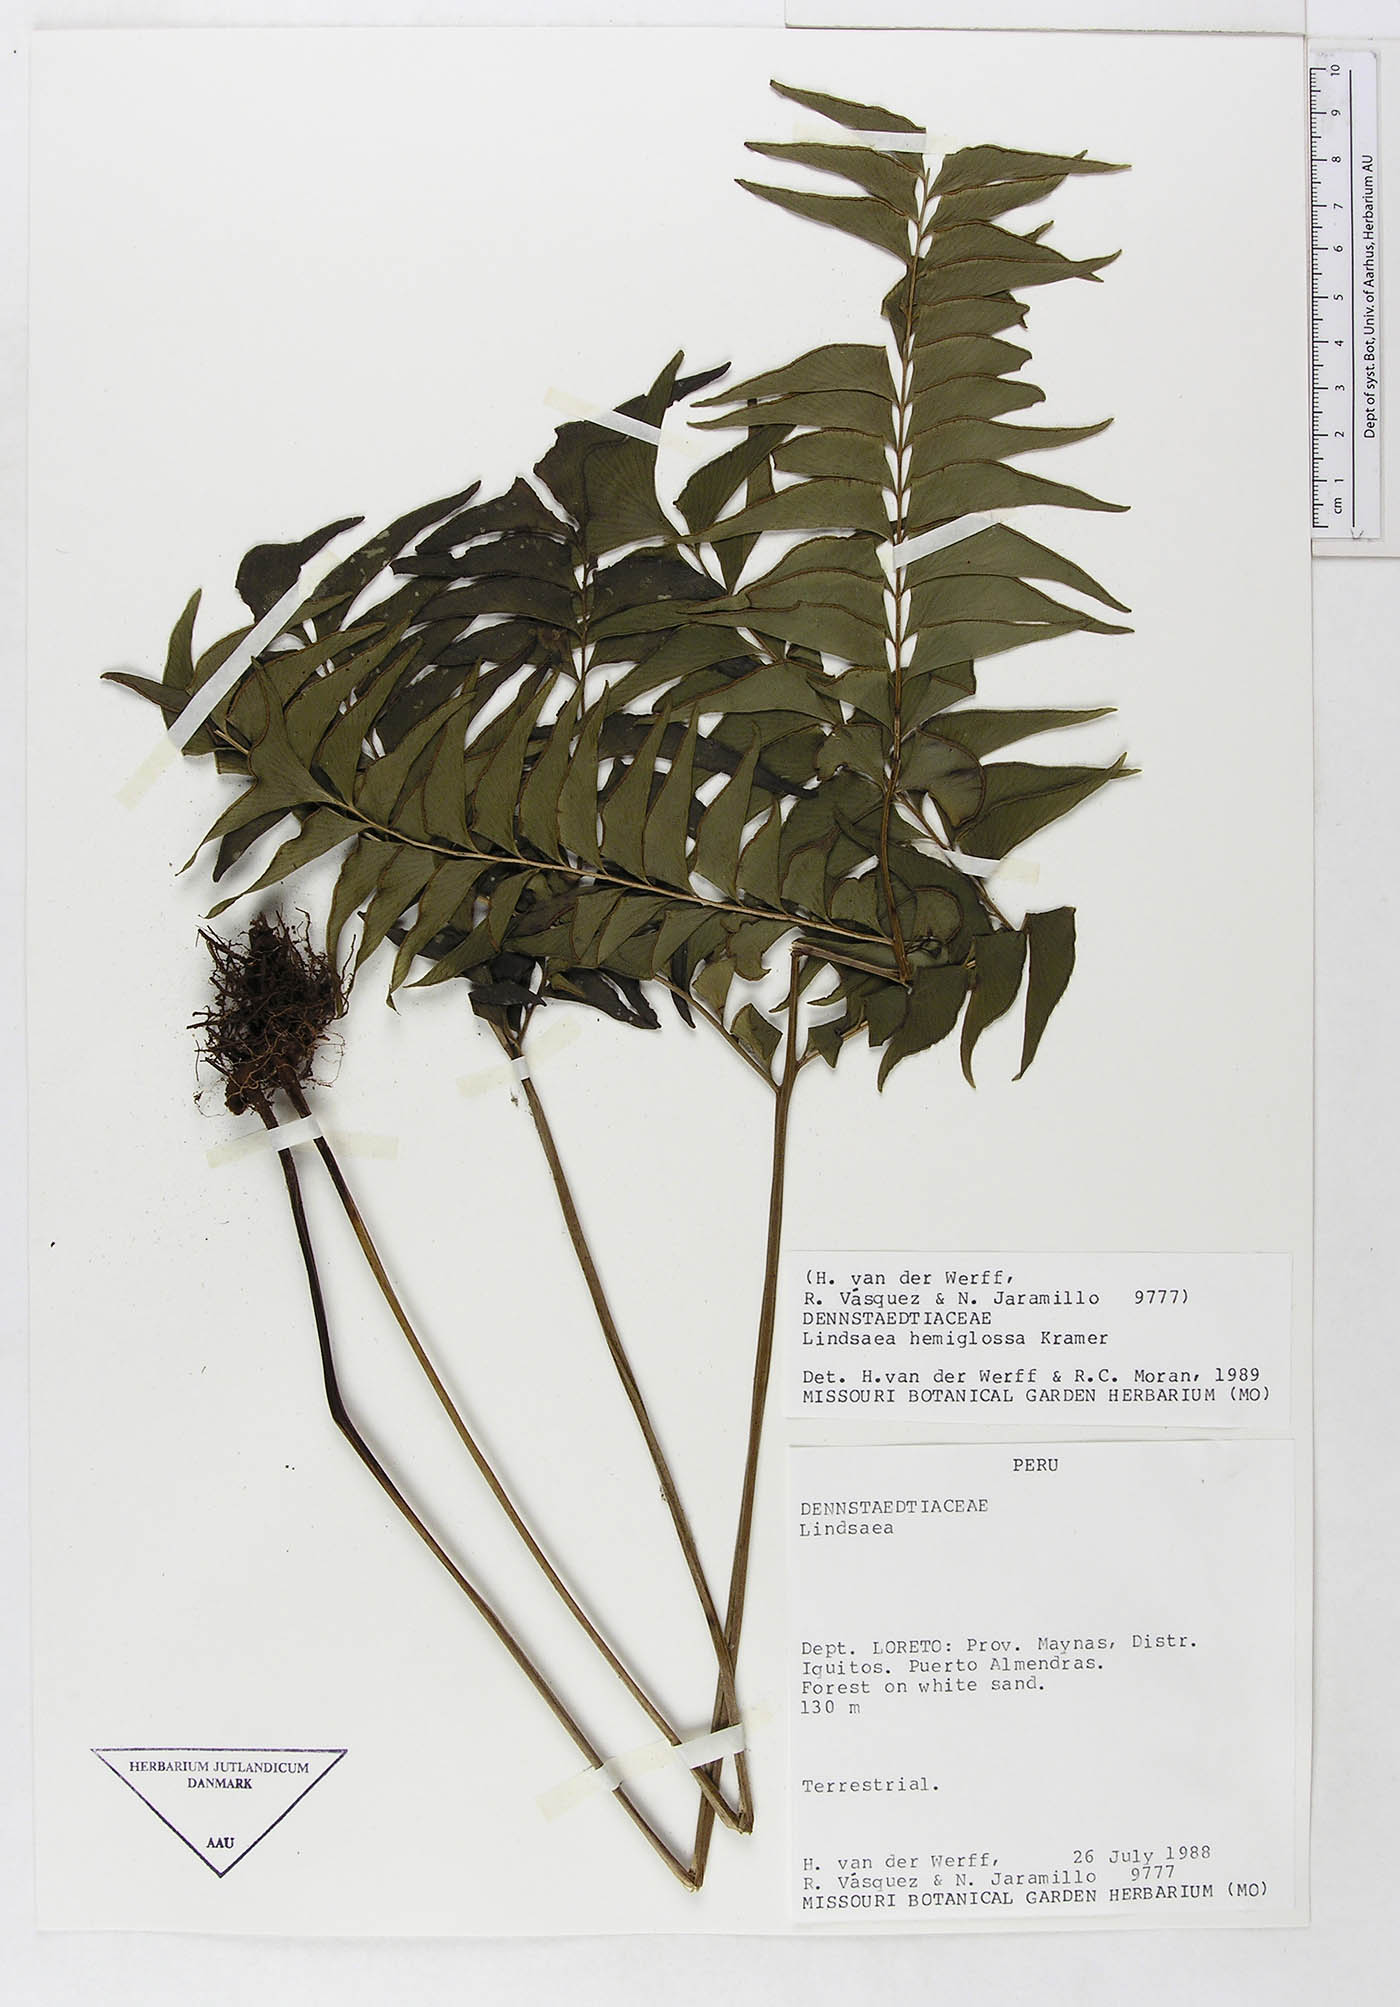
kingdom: Plantae
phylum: Tracheophyta
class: Polypodiopsida
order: Polypodiales
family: Lindsaeaceae
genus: Lindsaea
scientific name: Lindsaea hemiglossa
